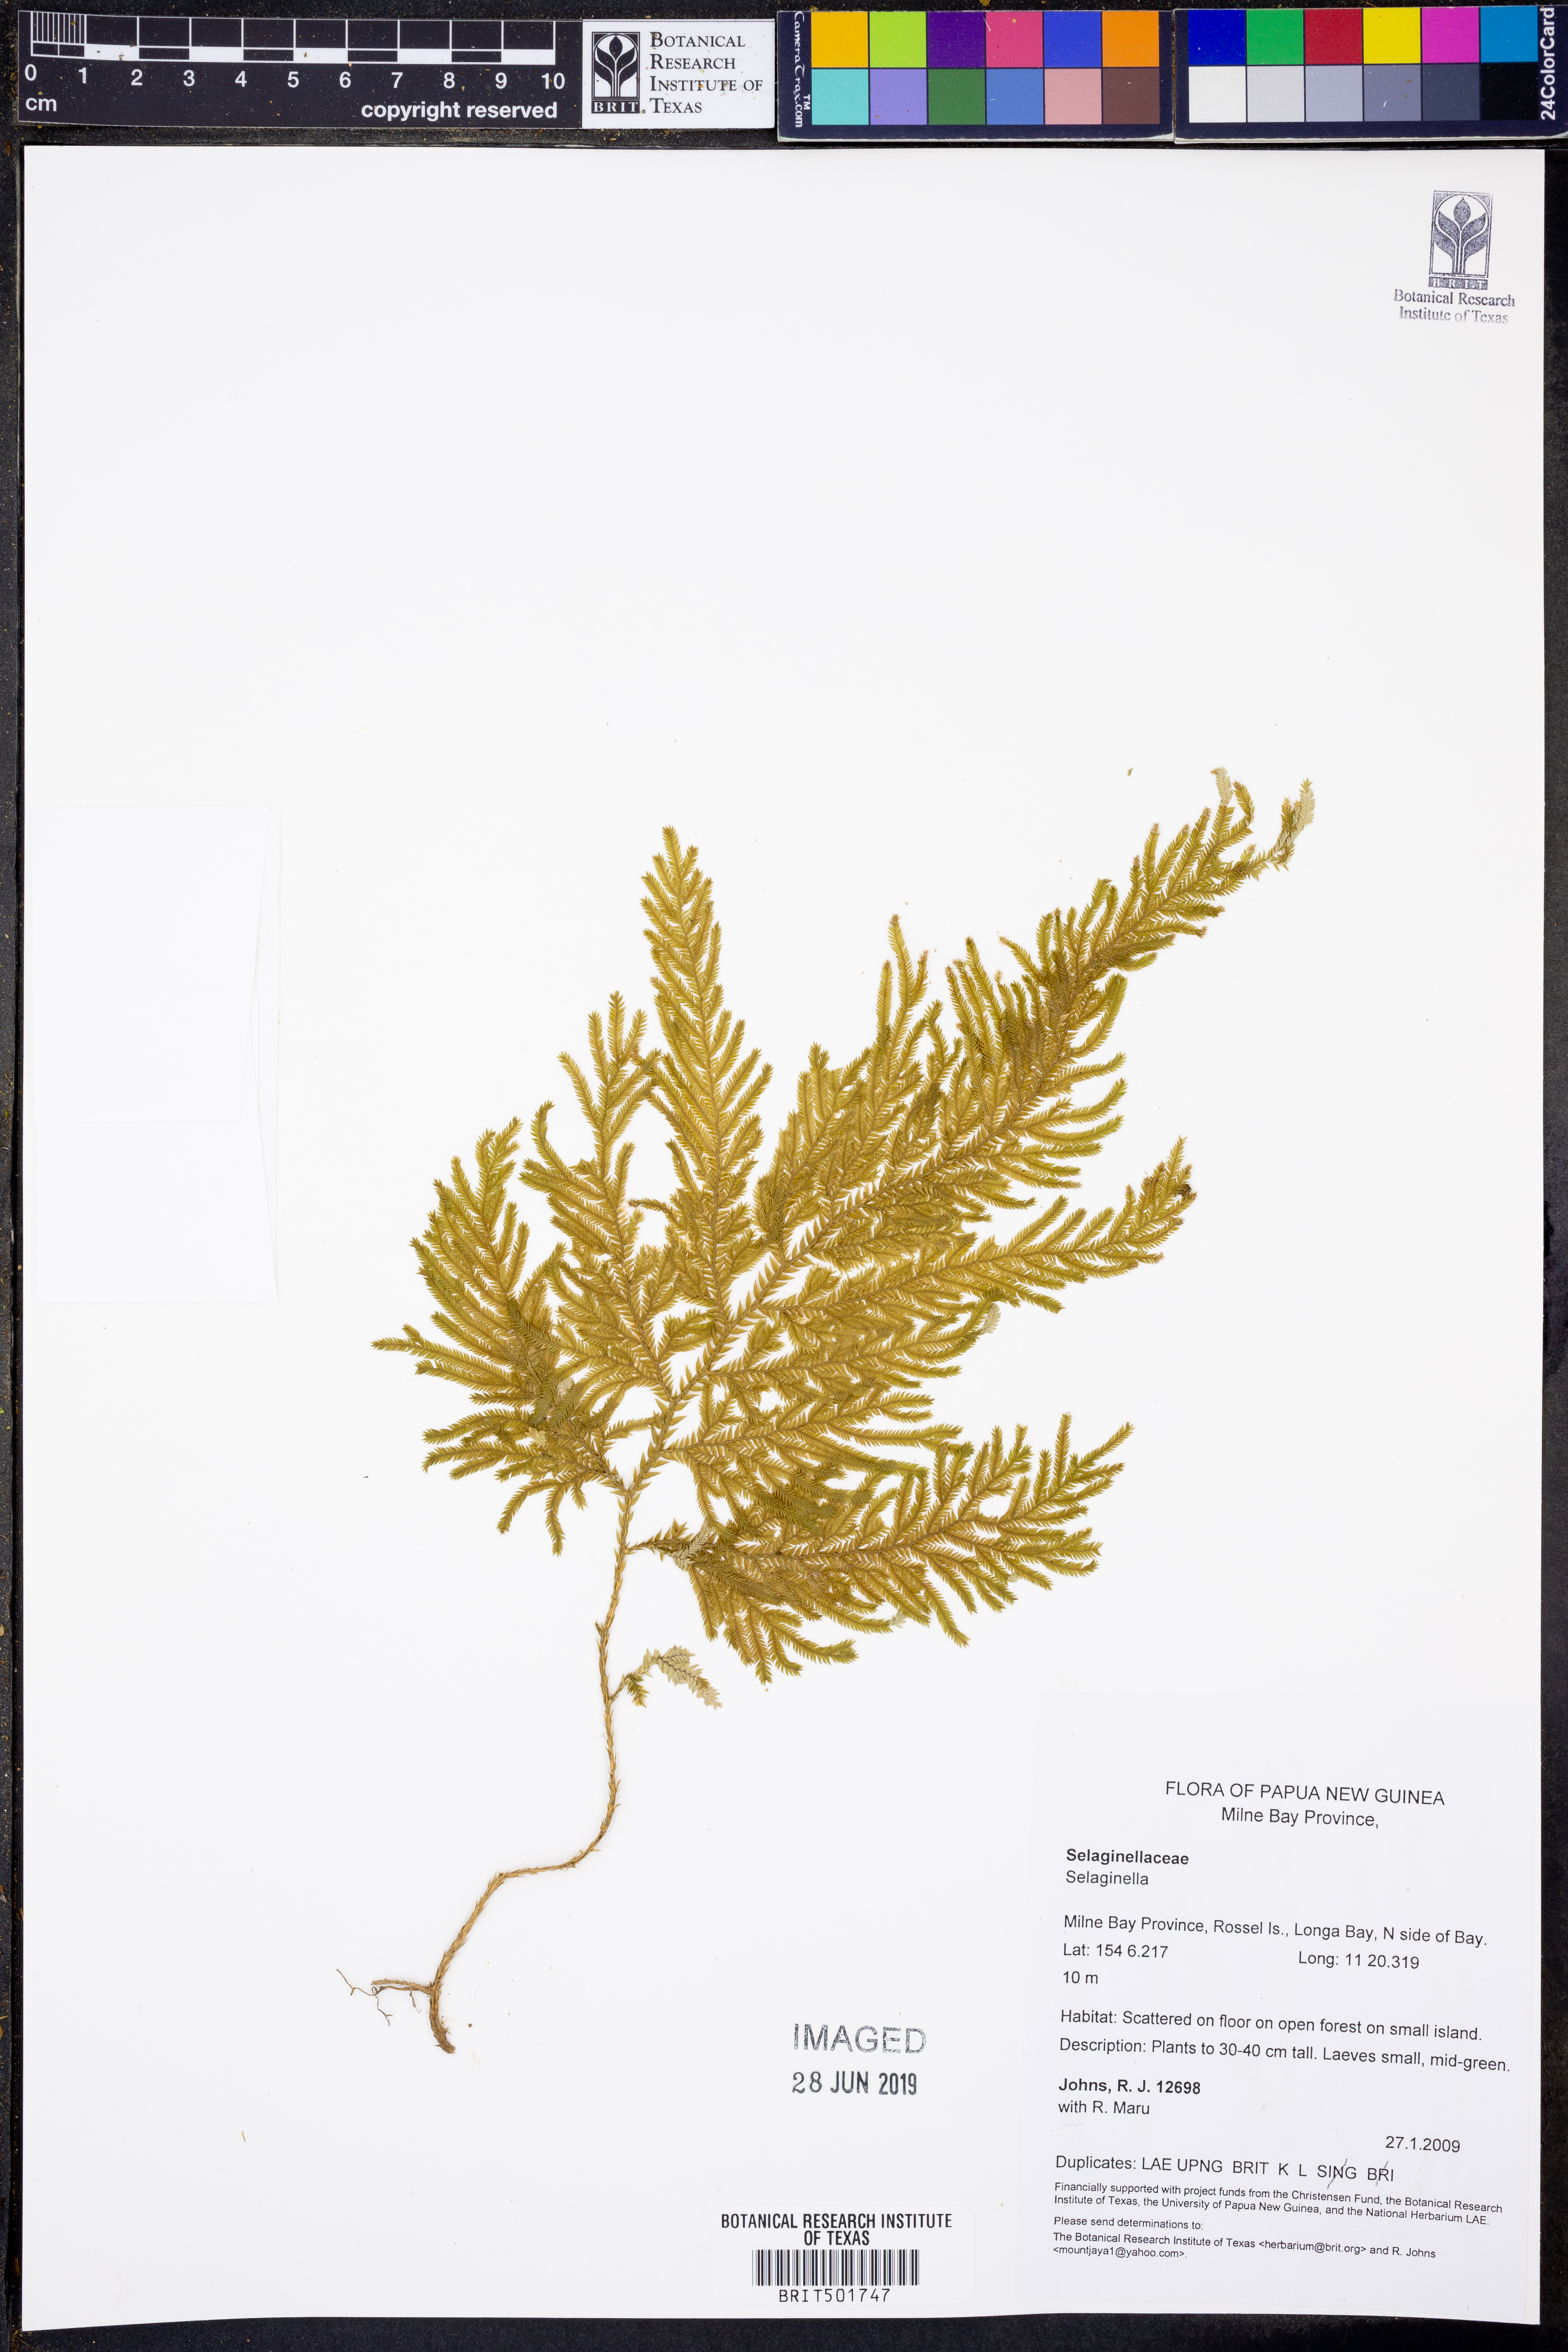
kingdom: Plantae
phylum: Tracheophyta
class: Lycopodiopsida
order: Selaginellales
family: Selaginellaceae
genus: Selaginella
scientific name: Selaginella
